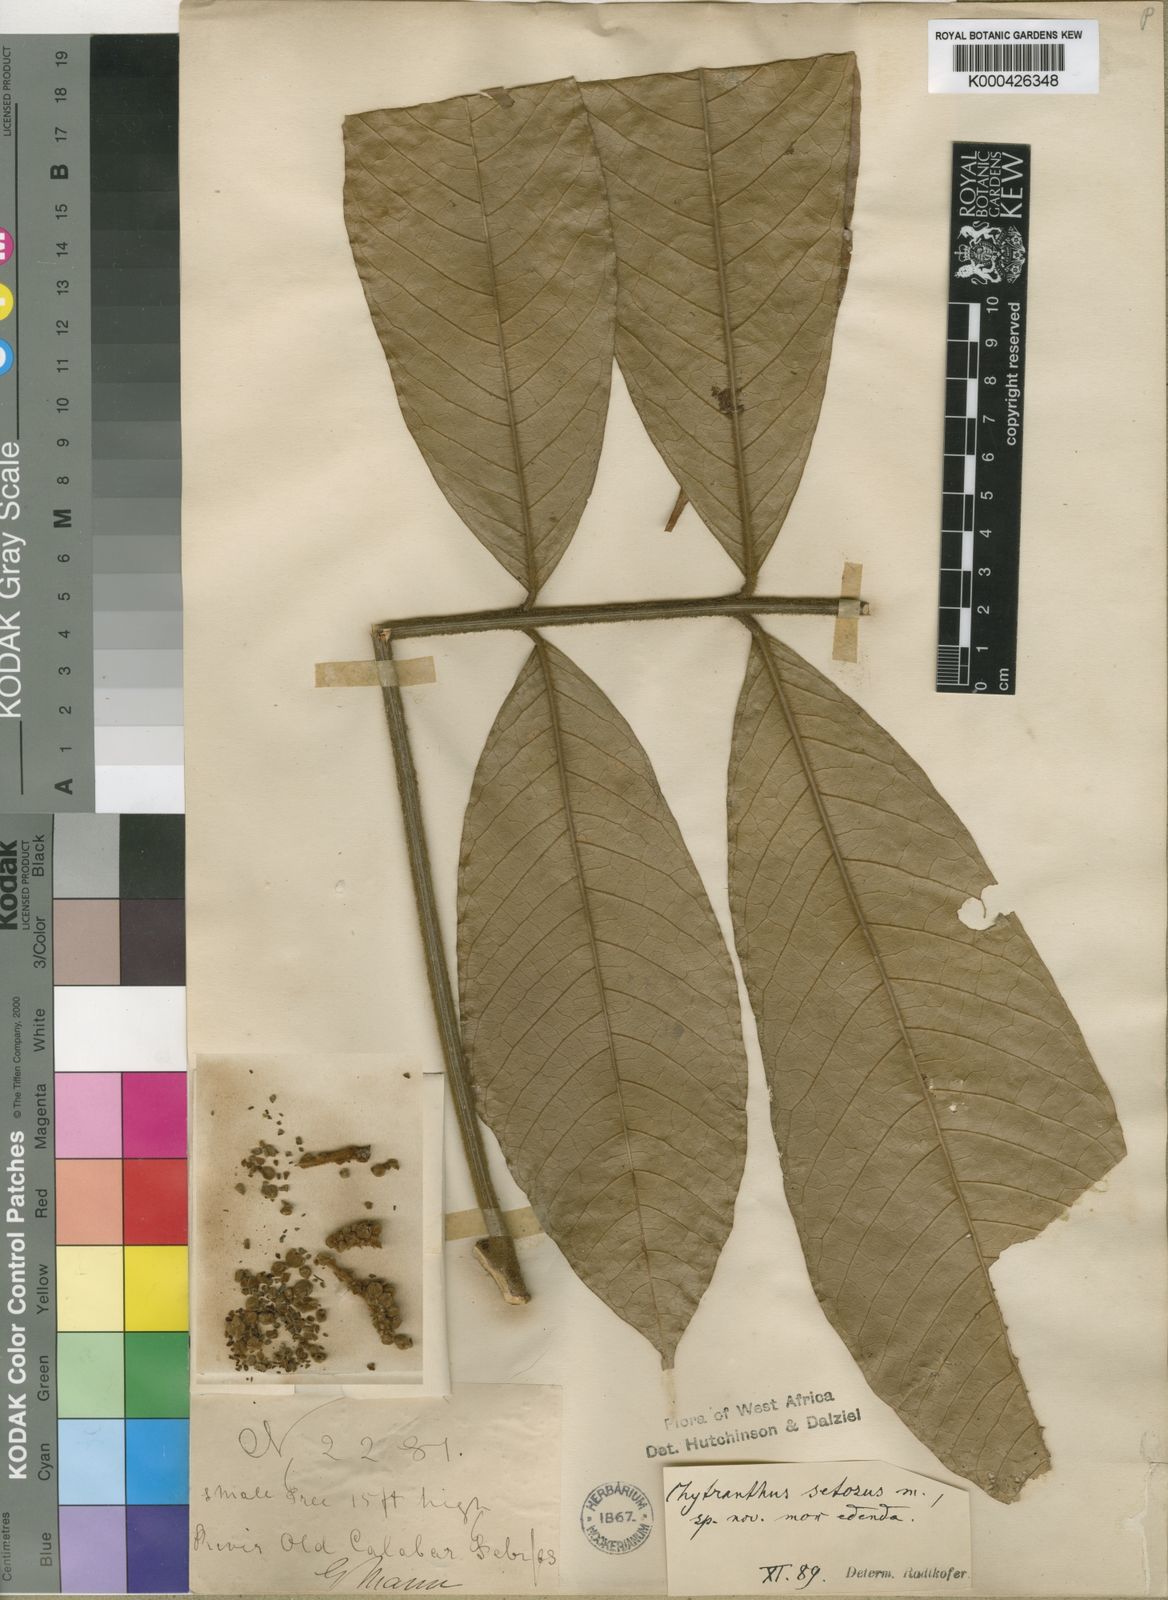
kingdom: Plantae
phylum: Tracheophyta
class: Magnoliopsida
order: Sapindales
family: Sapindaceae
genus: Chytranthus
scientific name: Chytranthus setosus
